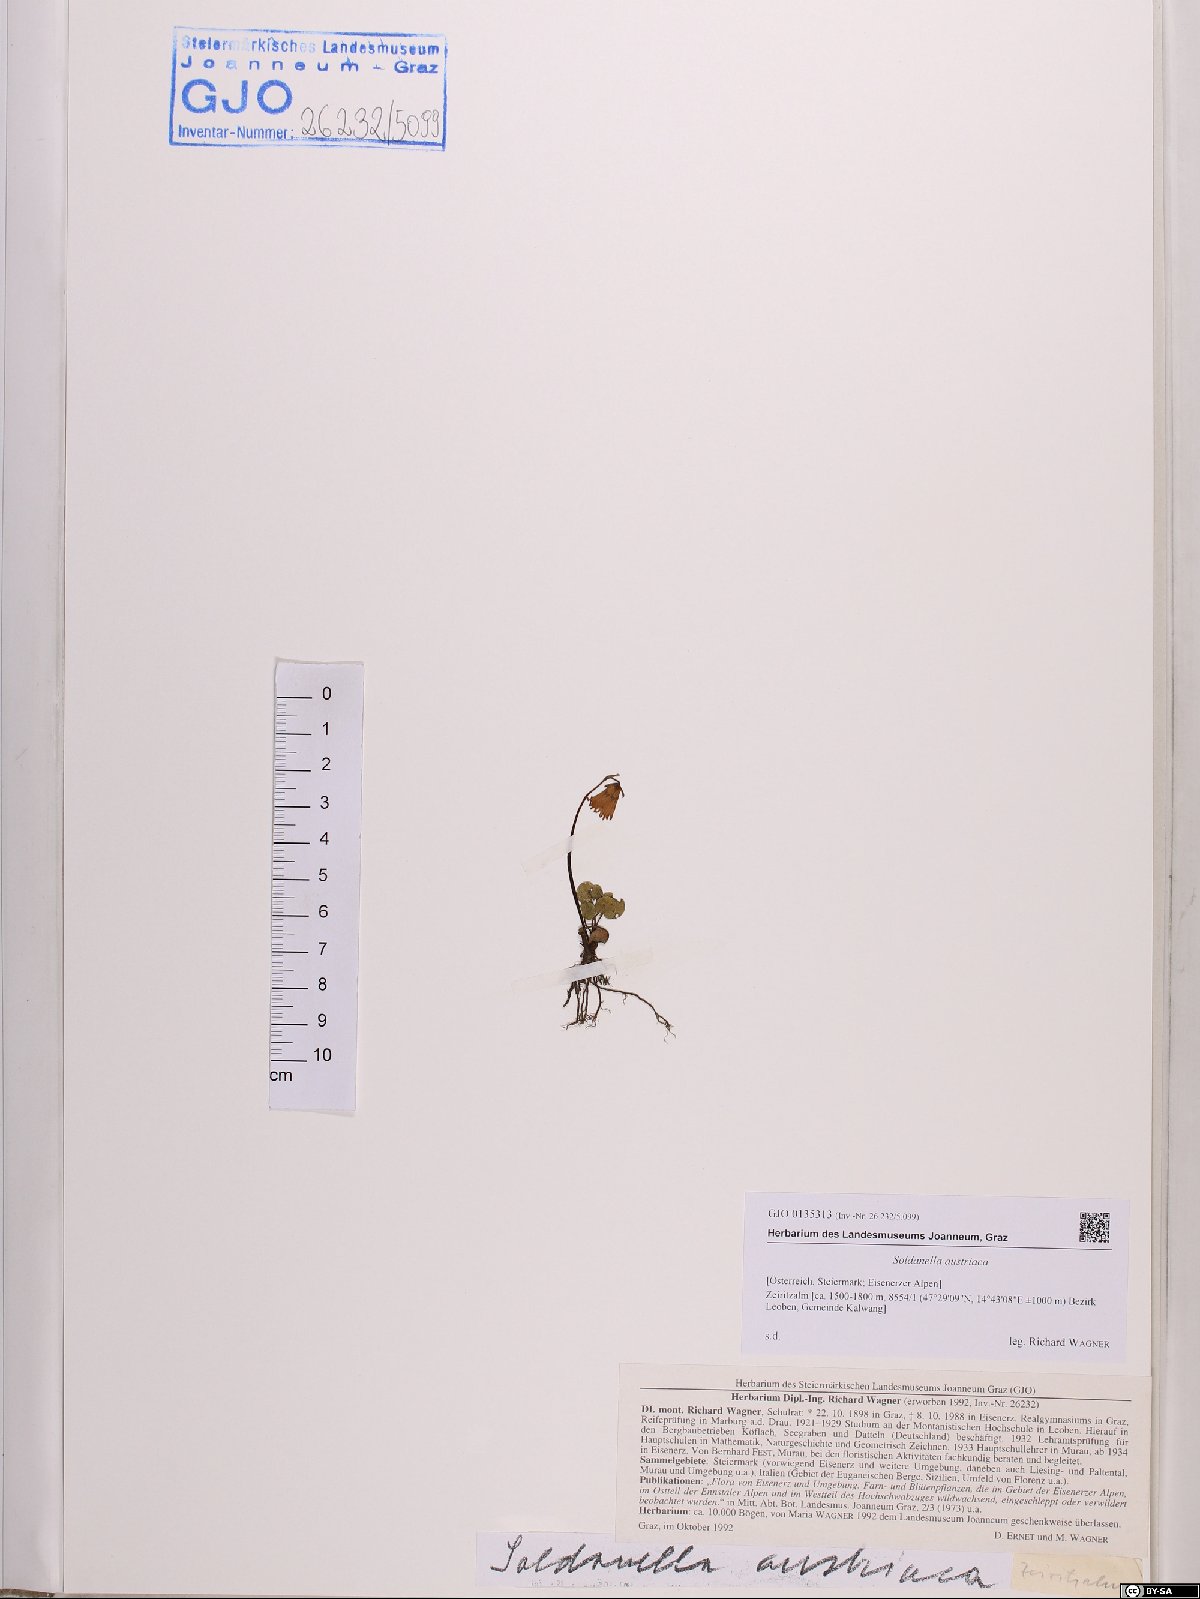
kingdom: Plantae
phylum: Tracheophyta
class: Magnoliopsida
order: Ericales
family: Primulaceae
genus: Soldanella
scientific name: Soldanella austriaca
